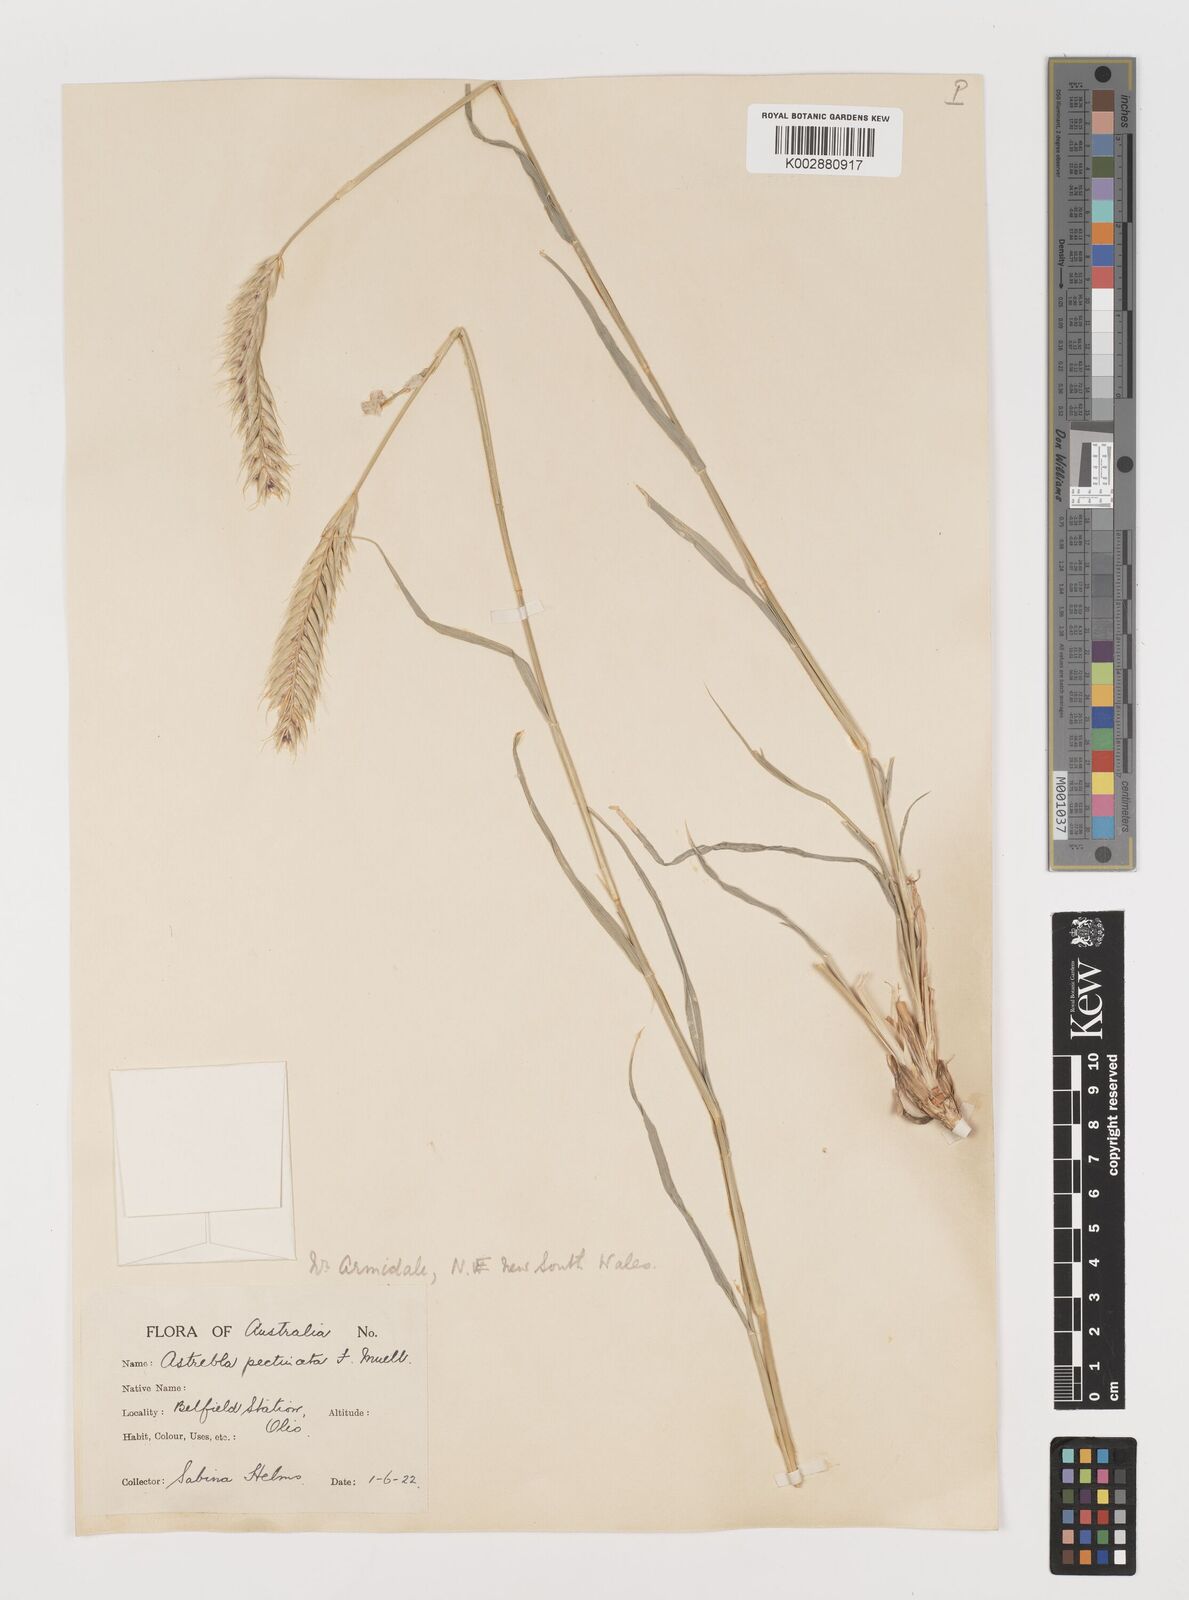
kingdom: Plantae
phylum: Tracheophyta
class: Liliopsida
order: Poales
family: Poaceae
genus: Astrebla
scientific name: Astrebla pectinata
